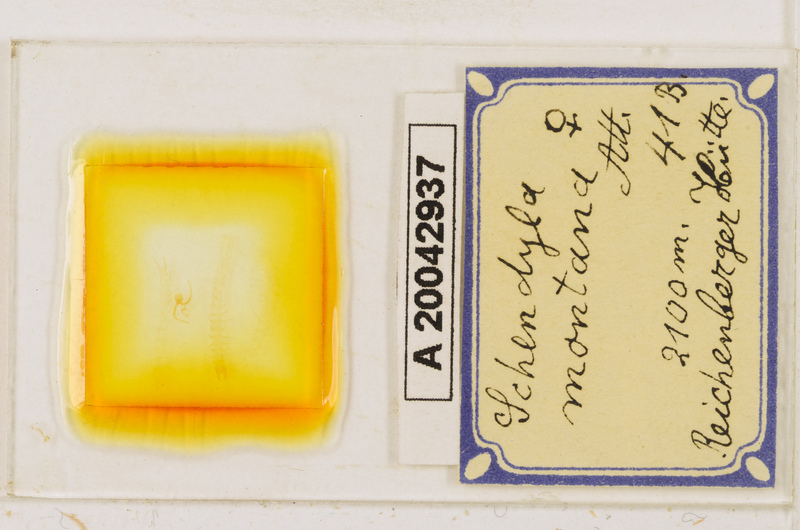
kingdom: Animalia
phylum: Arthropoda
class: Chilopoda
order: Geophilomorpha
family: Schendylidae
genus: Schendyla
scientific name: Schendyla montana
